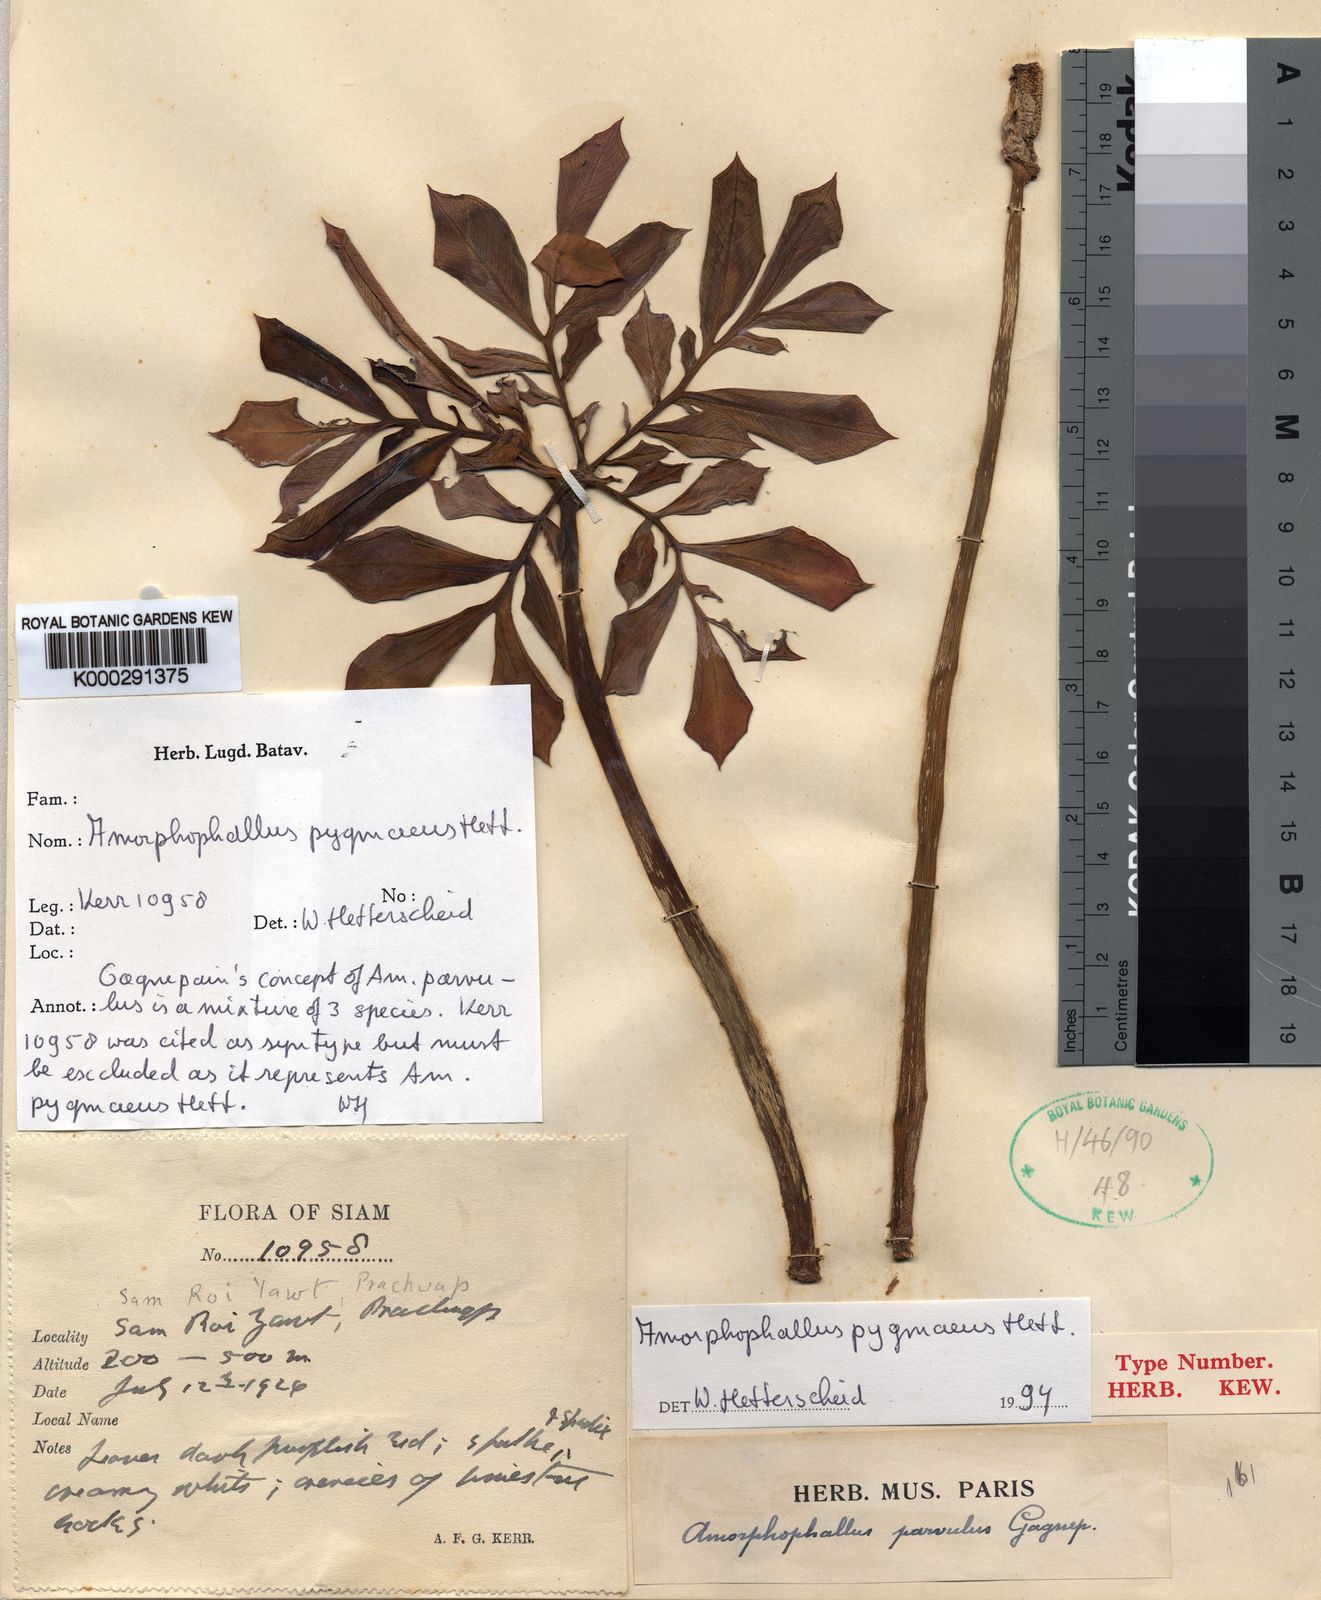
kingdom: Plantae
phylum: Tracheophyta
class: Liliopsida
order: Alismatales
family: Araceae
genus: Amorphophallus
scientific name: Amorphophallus pygmaeus
